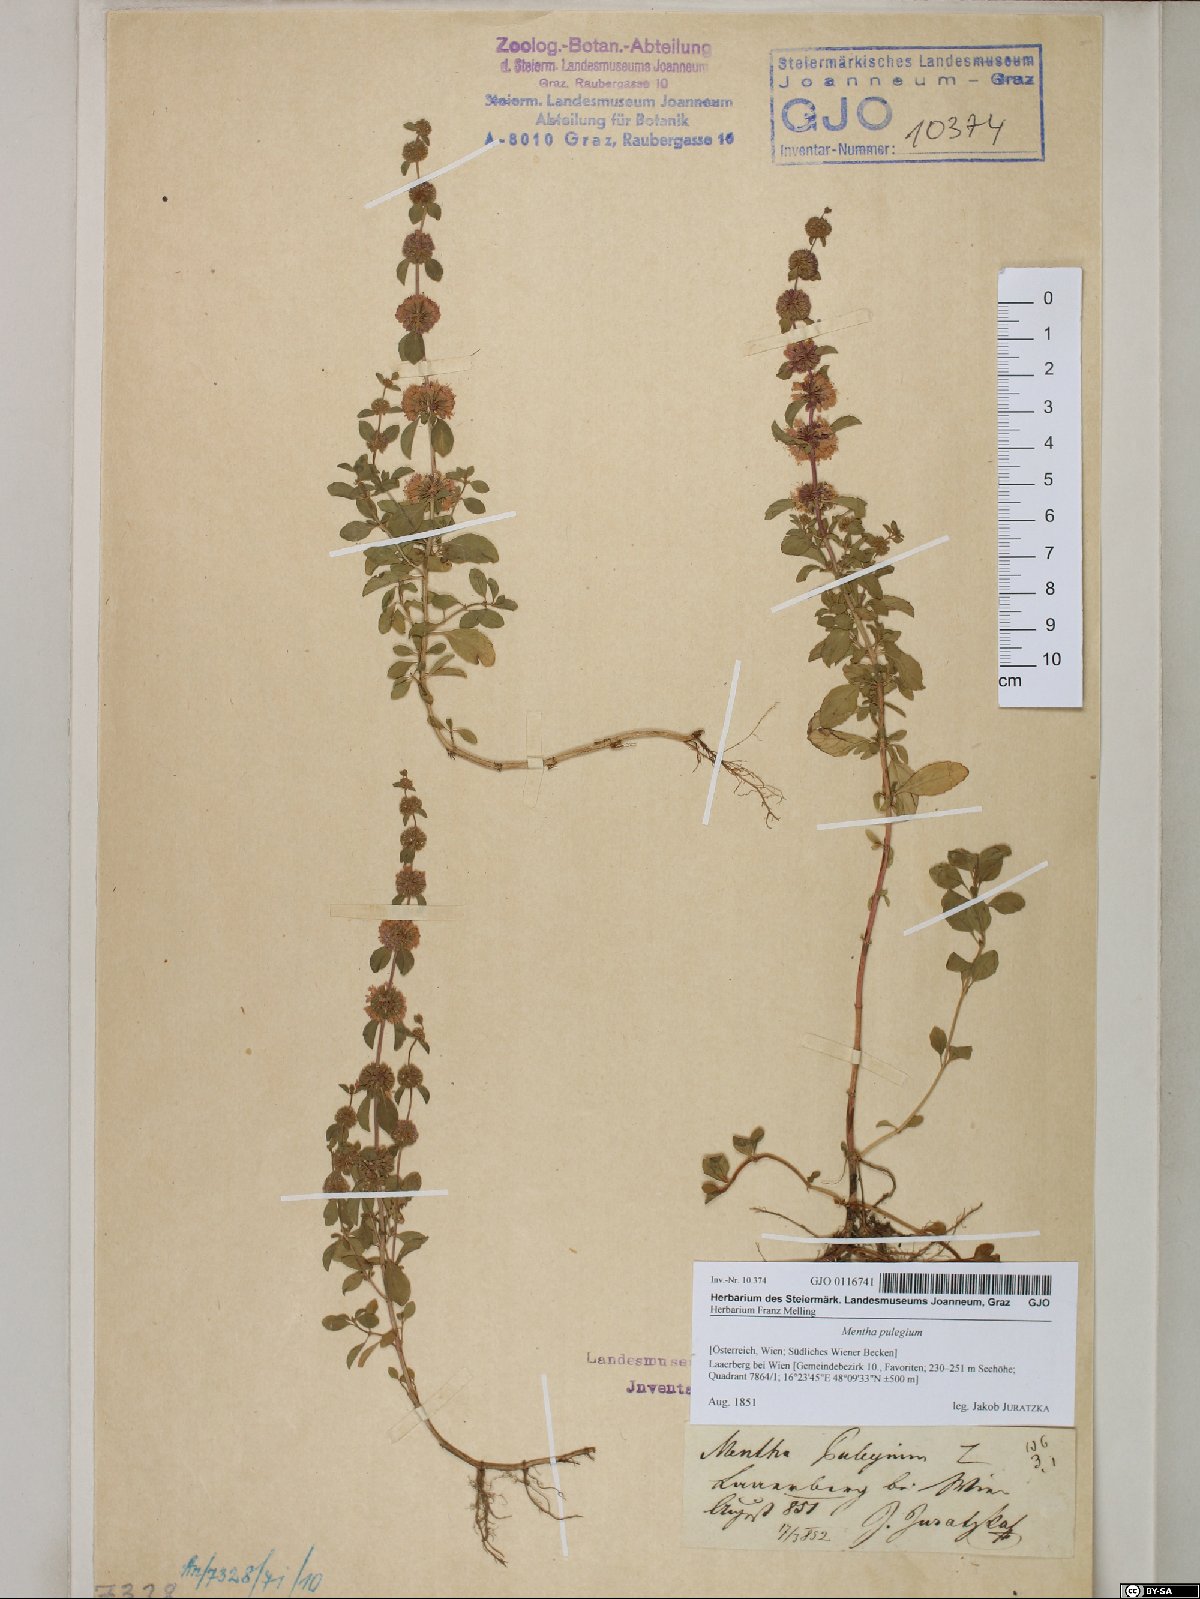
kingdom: Plantae
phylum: Tracheophyta
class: Magnoliopsida
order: Lamiales
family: Lamiaceae
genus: Mentha
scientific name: Mentha pulegium
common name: Pennyroyal
